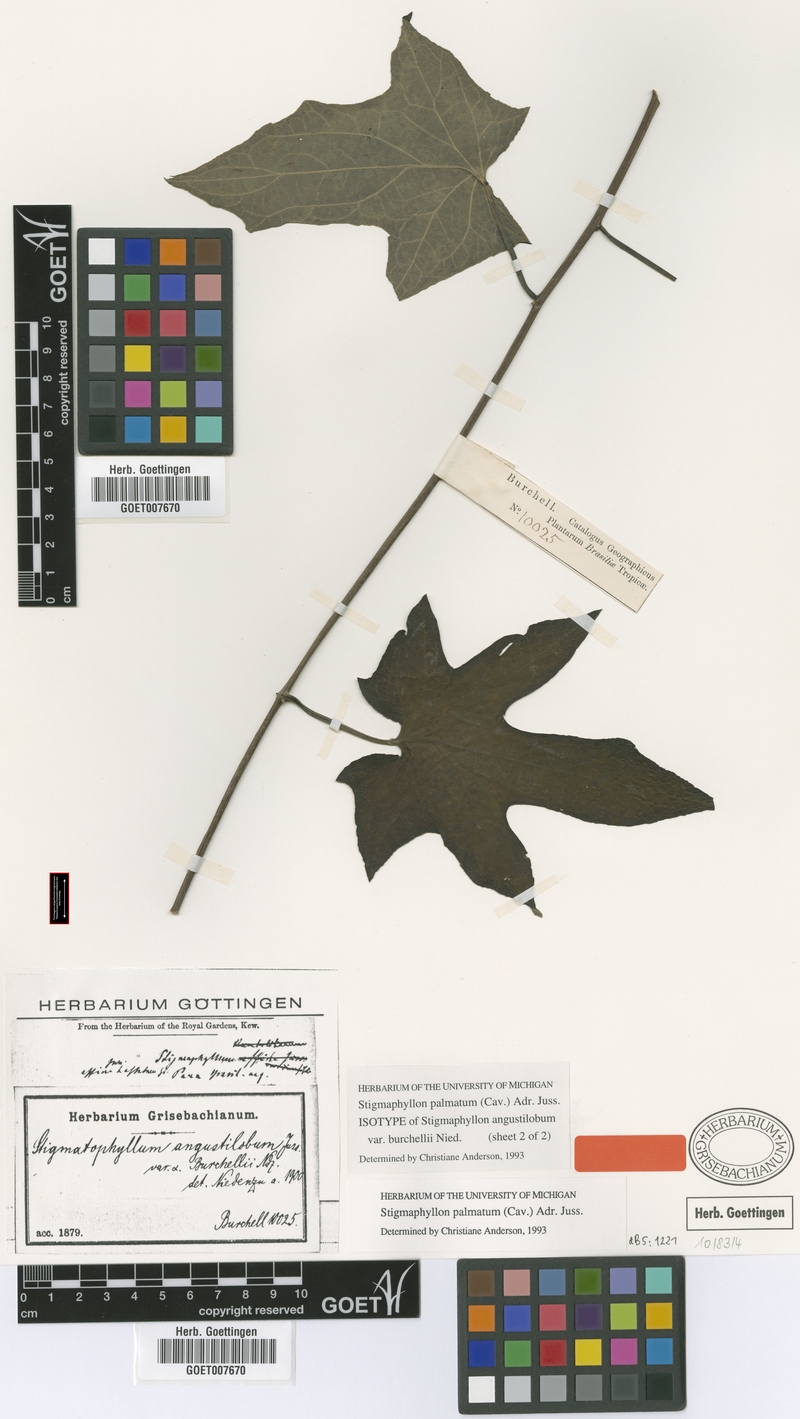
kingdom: Plantae
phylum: Tracheophyta
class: Magnoliopsida
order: Malpighiales
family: Malpighiaceae
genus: Stigmaphyllon
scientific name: Stigmaphyllon palmatum
